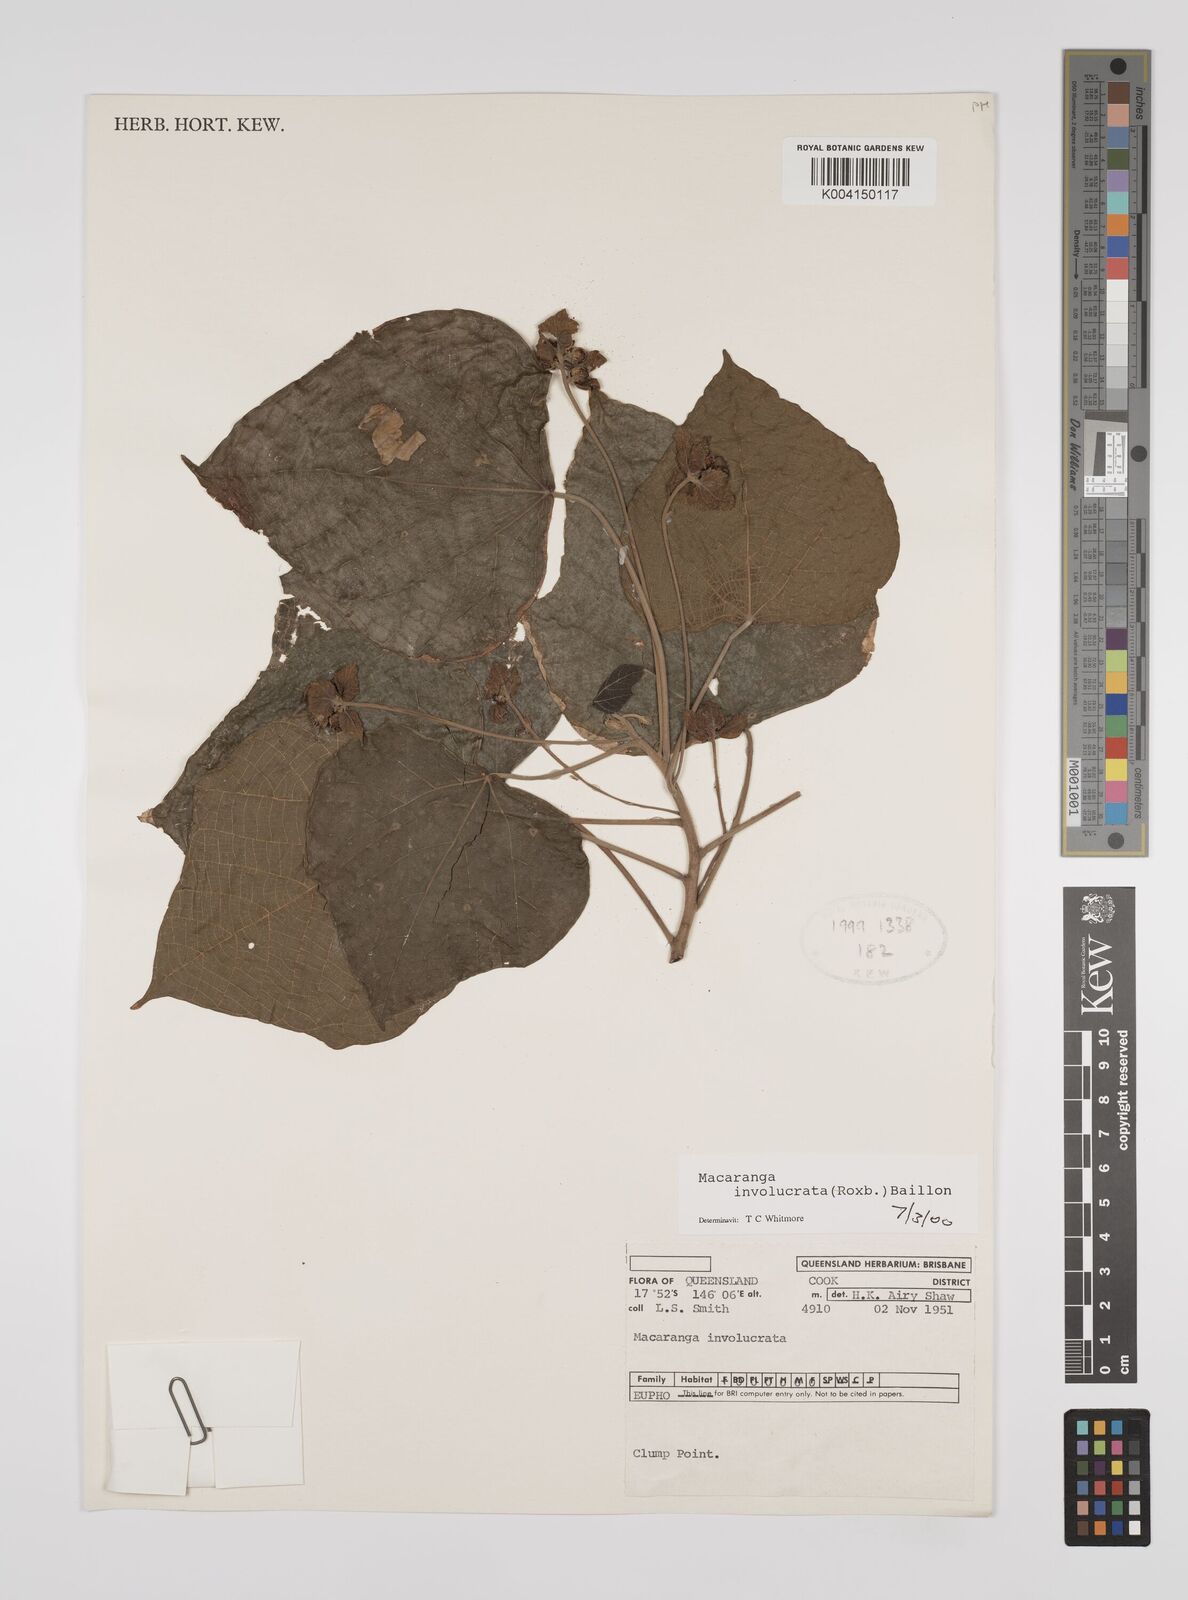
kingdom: Plantae
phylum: Tracheophyta
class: Magnoliopsida
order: Malpighiales
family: Euphorbiaceae
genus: Macaranga
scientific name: Macaranga involucrata
